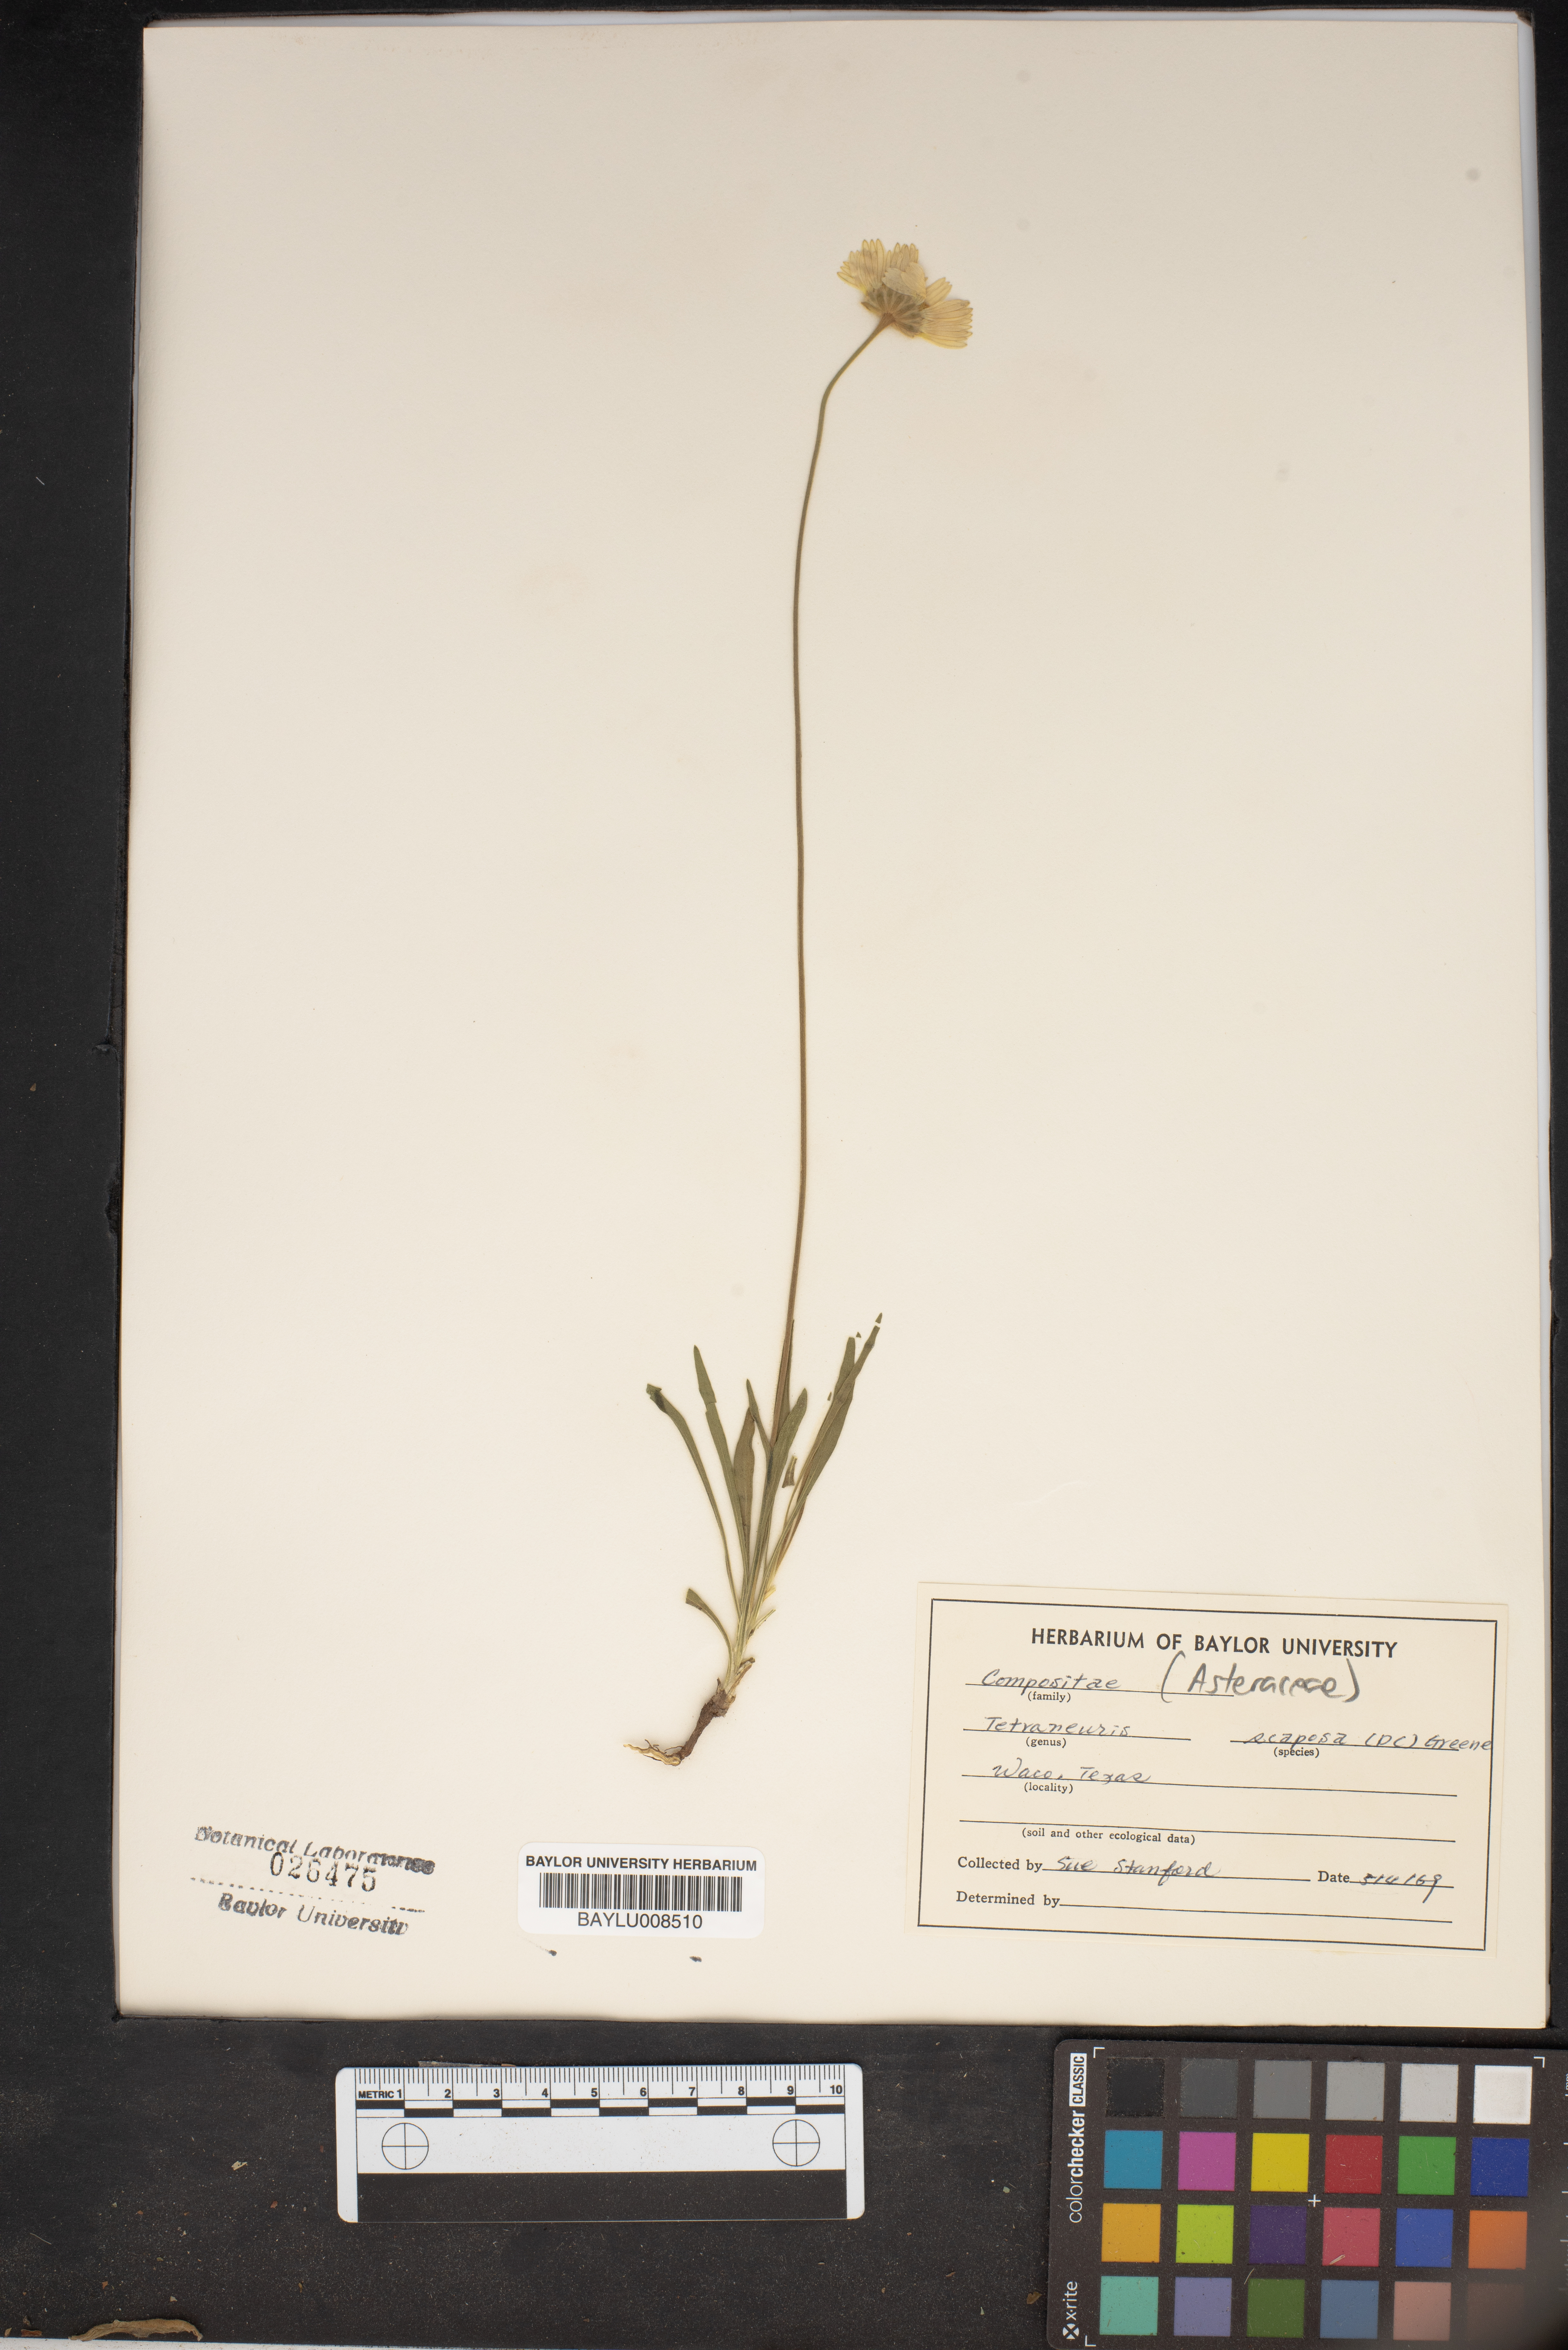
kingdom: Plantae
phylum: Tracheophyta
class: Magnoliopsida
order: Asterales
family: Asteraceae
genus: Tetraneuris
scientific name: Tetraneuris scaposa
